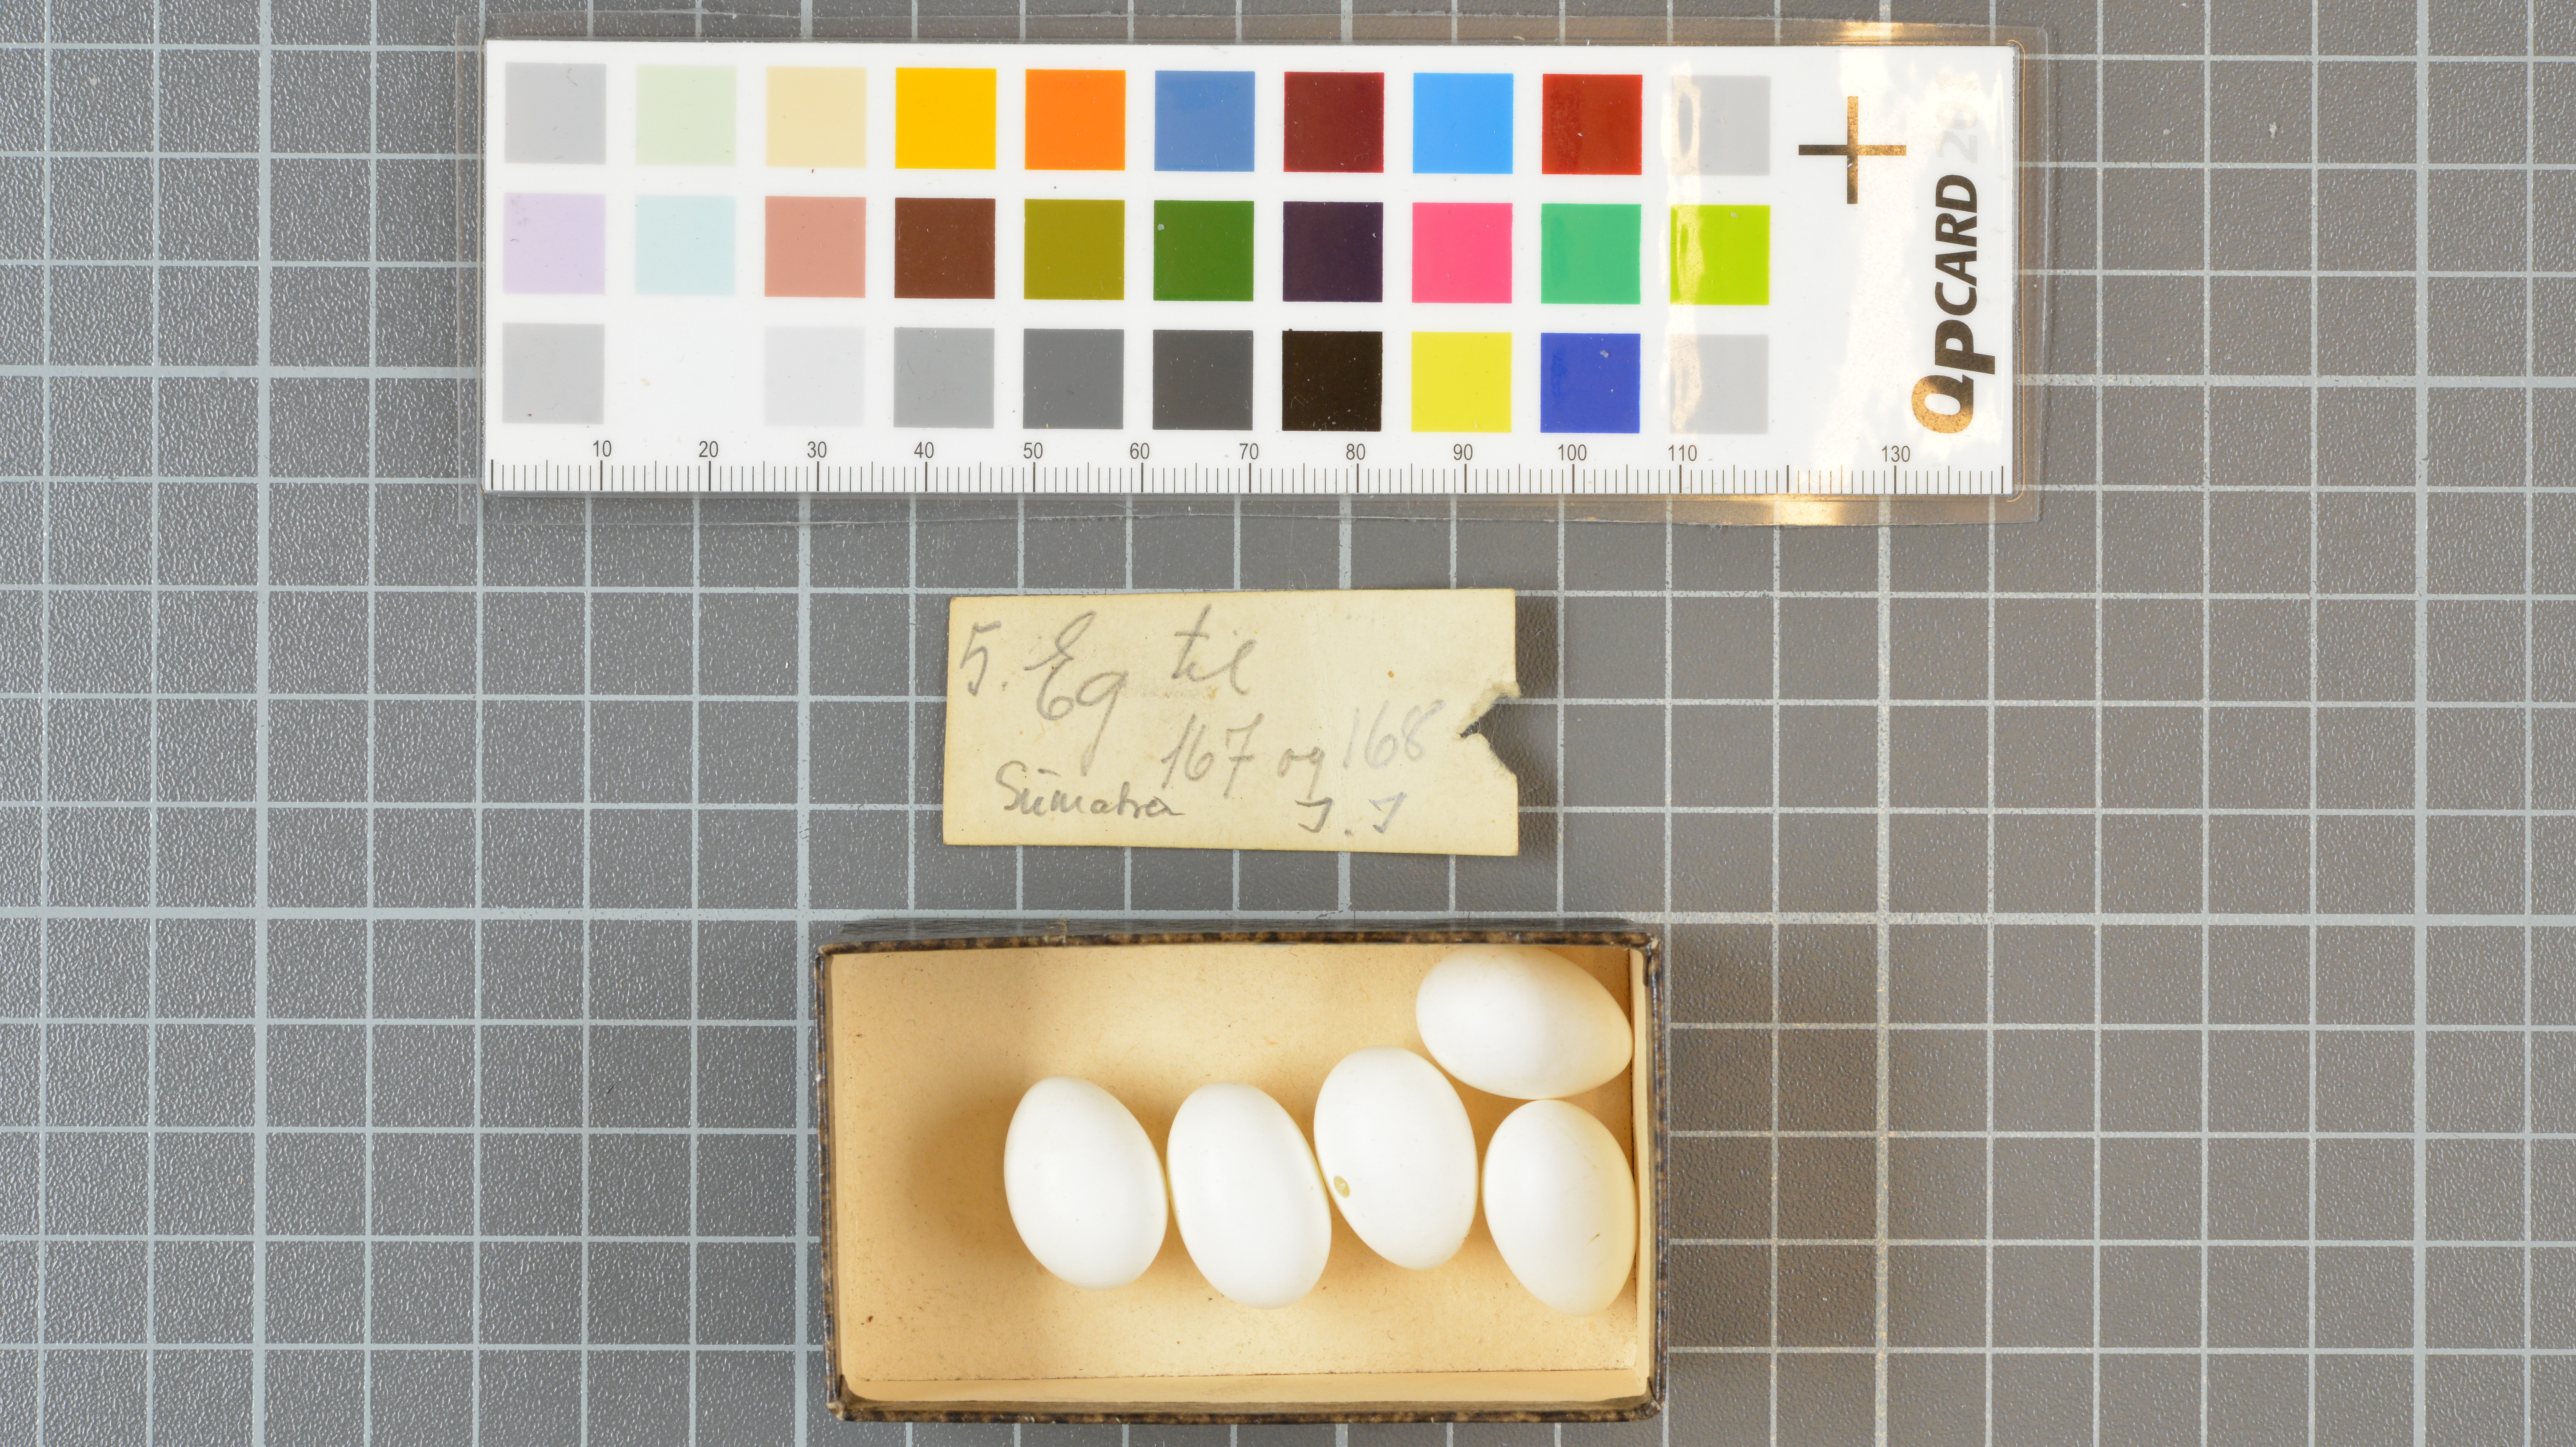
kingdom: Animalia
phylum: Chordata
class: Aves
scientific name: Aves
